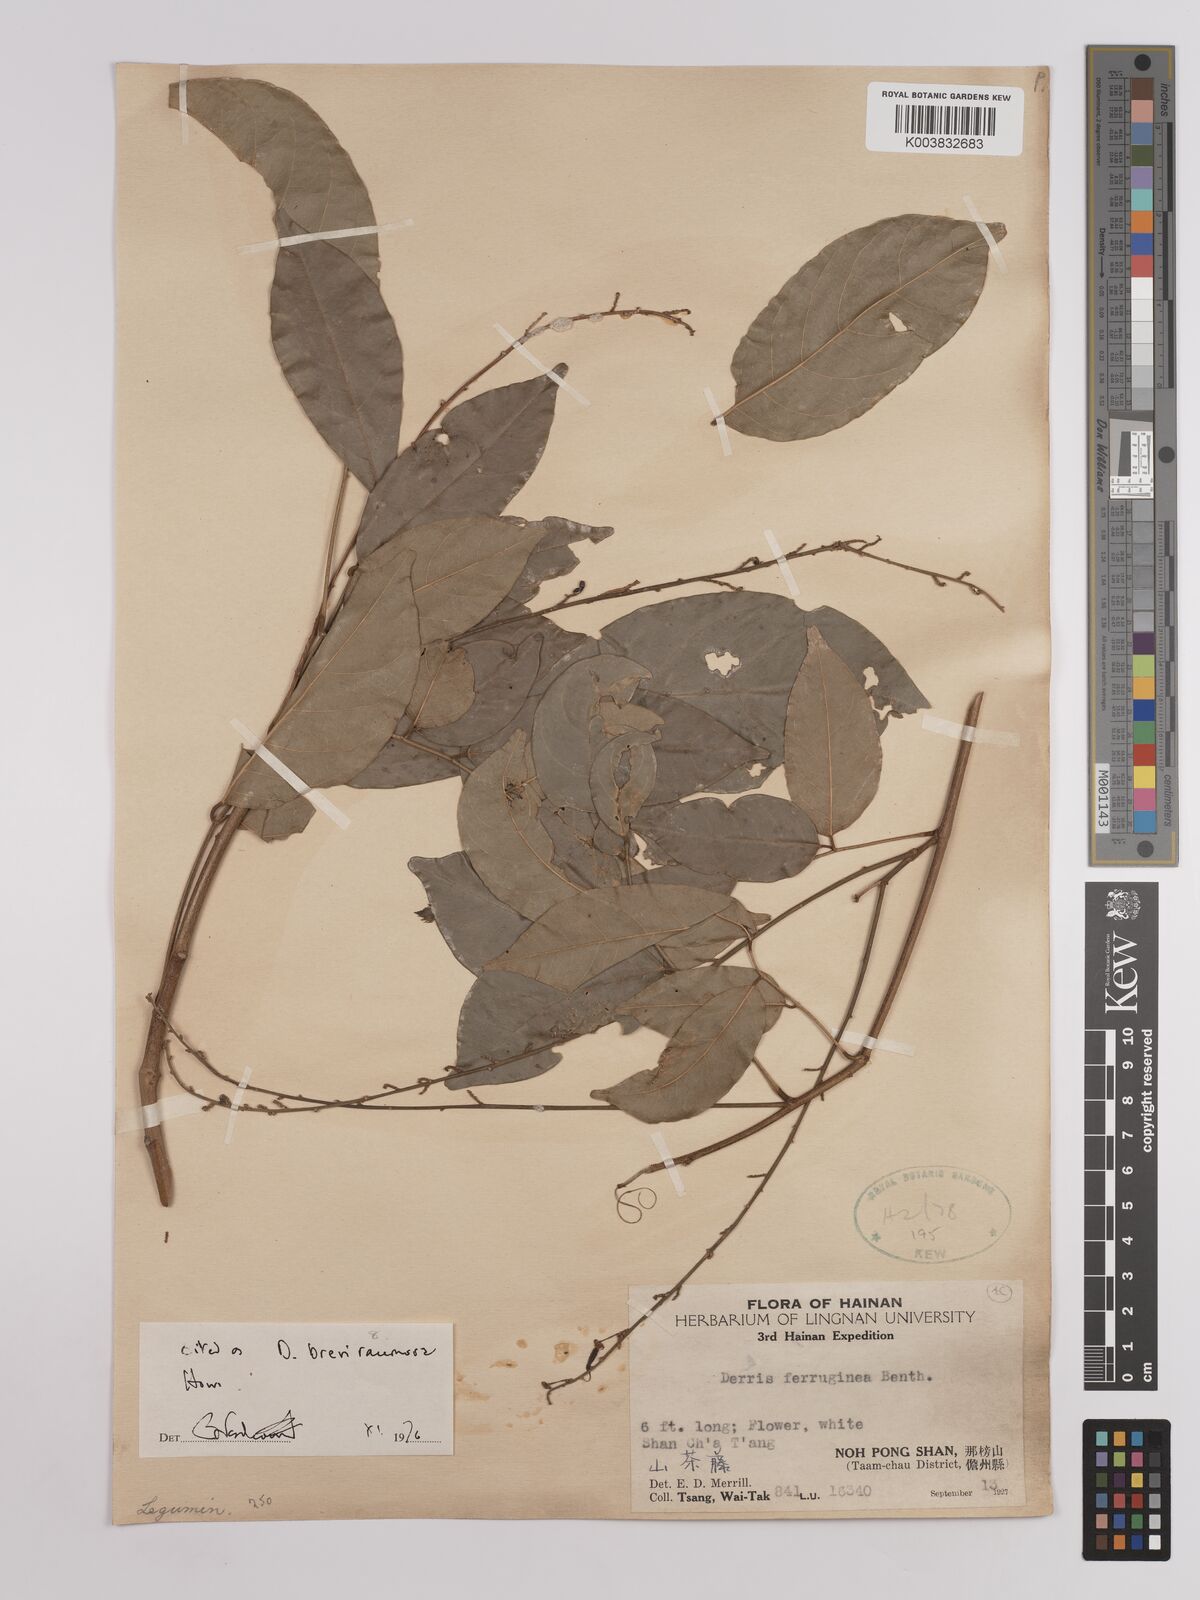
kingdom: Plantae
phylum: Tracheophyta
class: Magnoliopsida
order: Fabales
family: Fabaceae
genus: Derris
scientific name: Derris ferruginea
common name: Indian tubaroot
